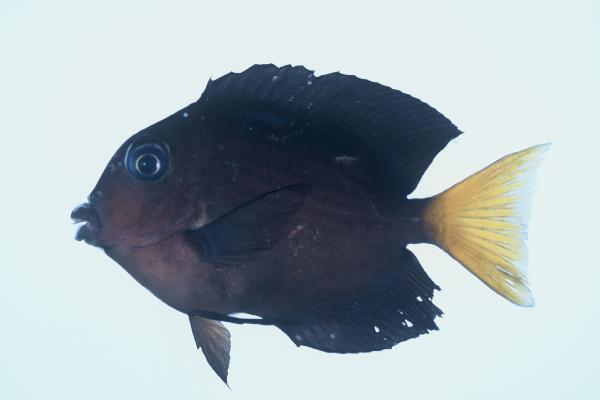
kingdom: Animalia
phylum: Chordata
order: Perciformes
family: Acanthuridae
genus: Ctenochaetus
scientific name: Ctenochaetus binotatus
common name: Two-spot bristletooth
